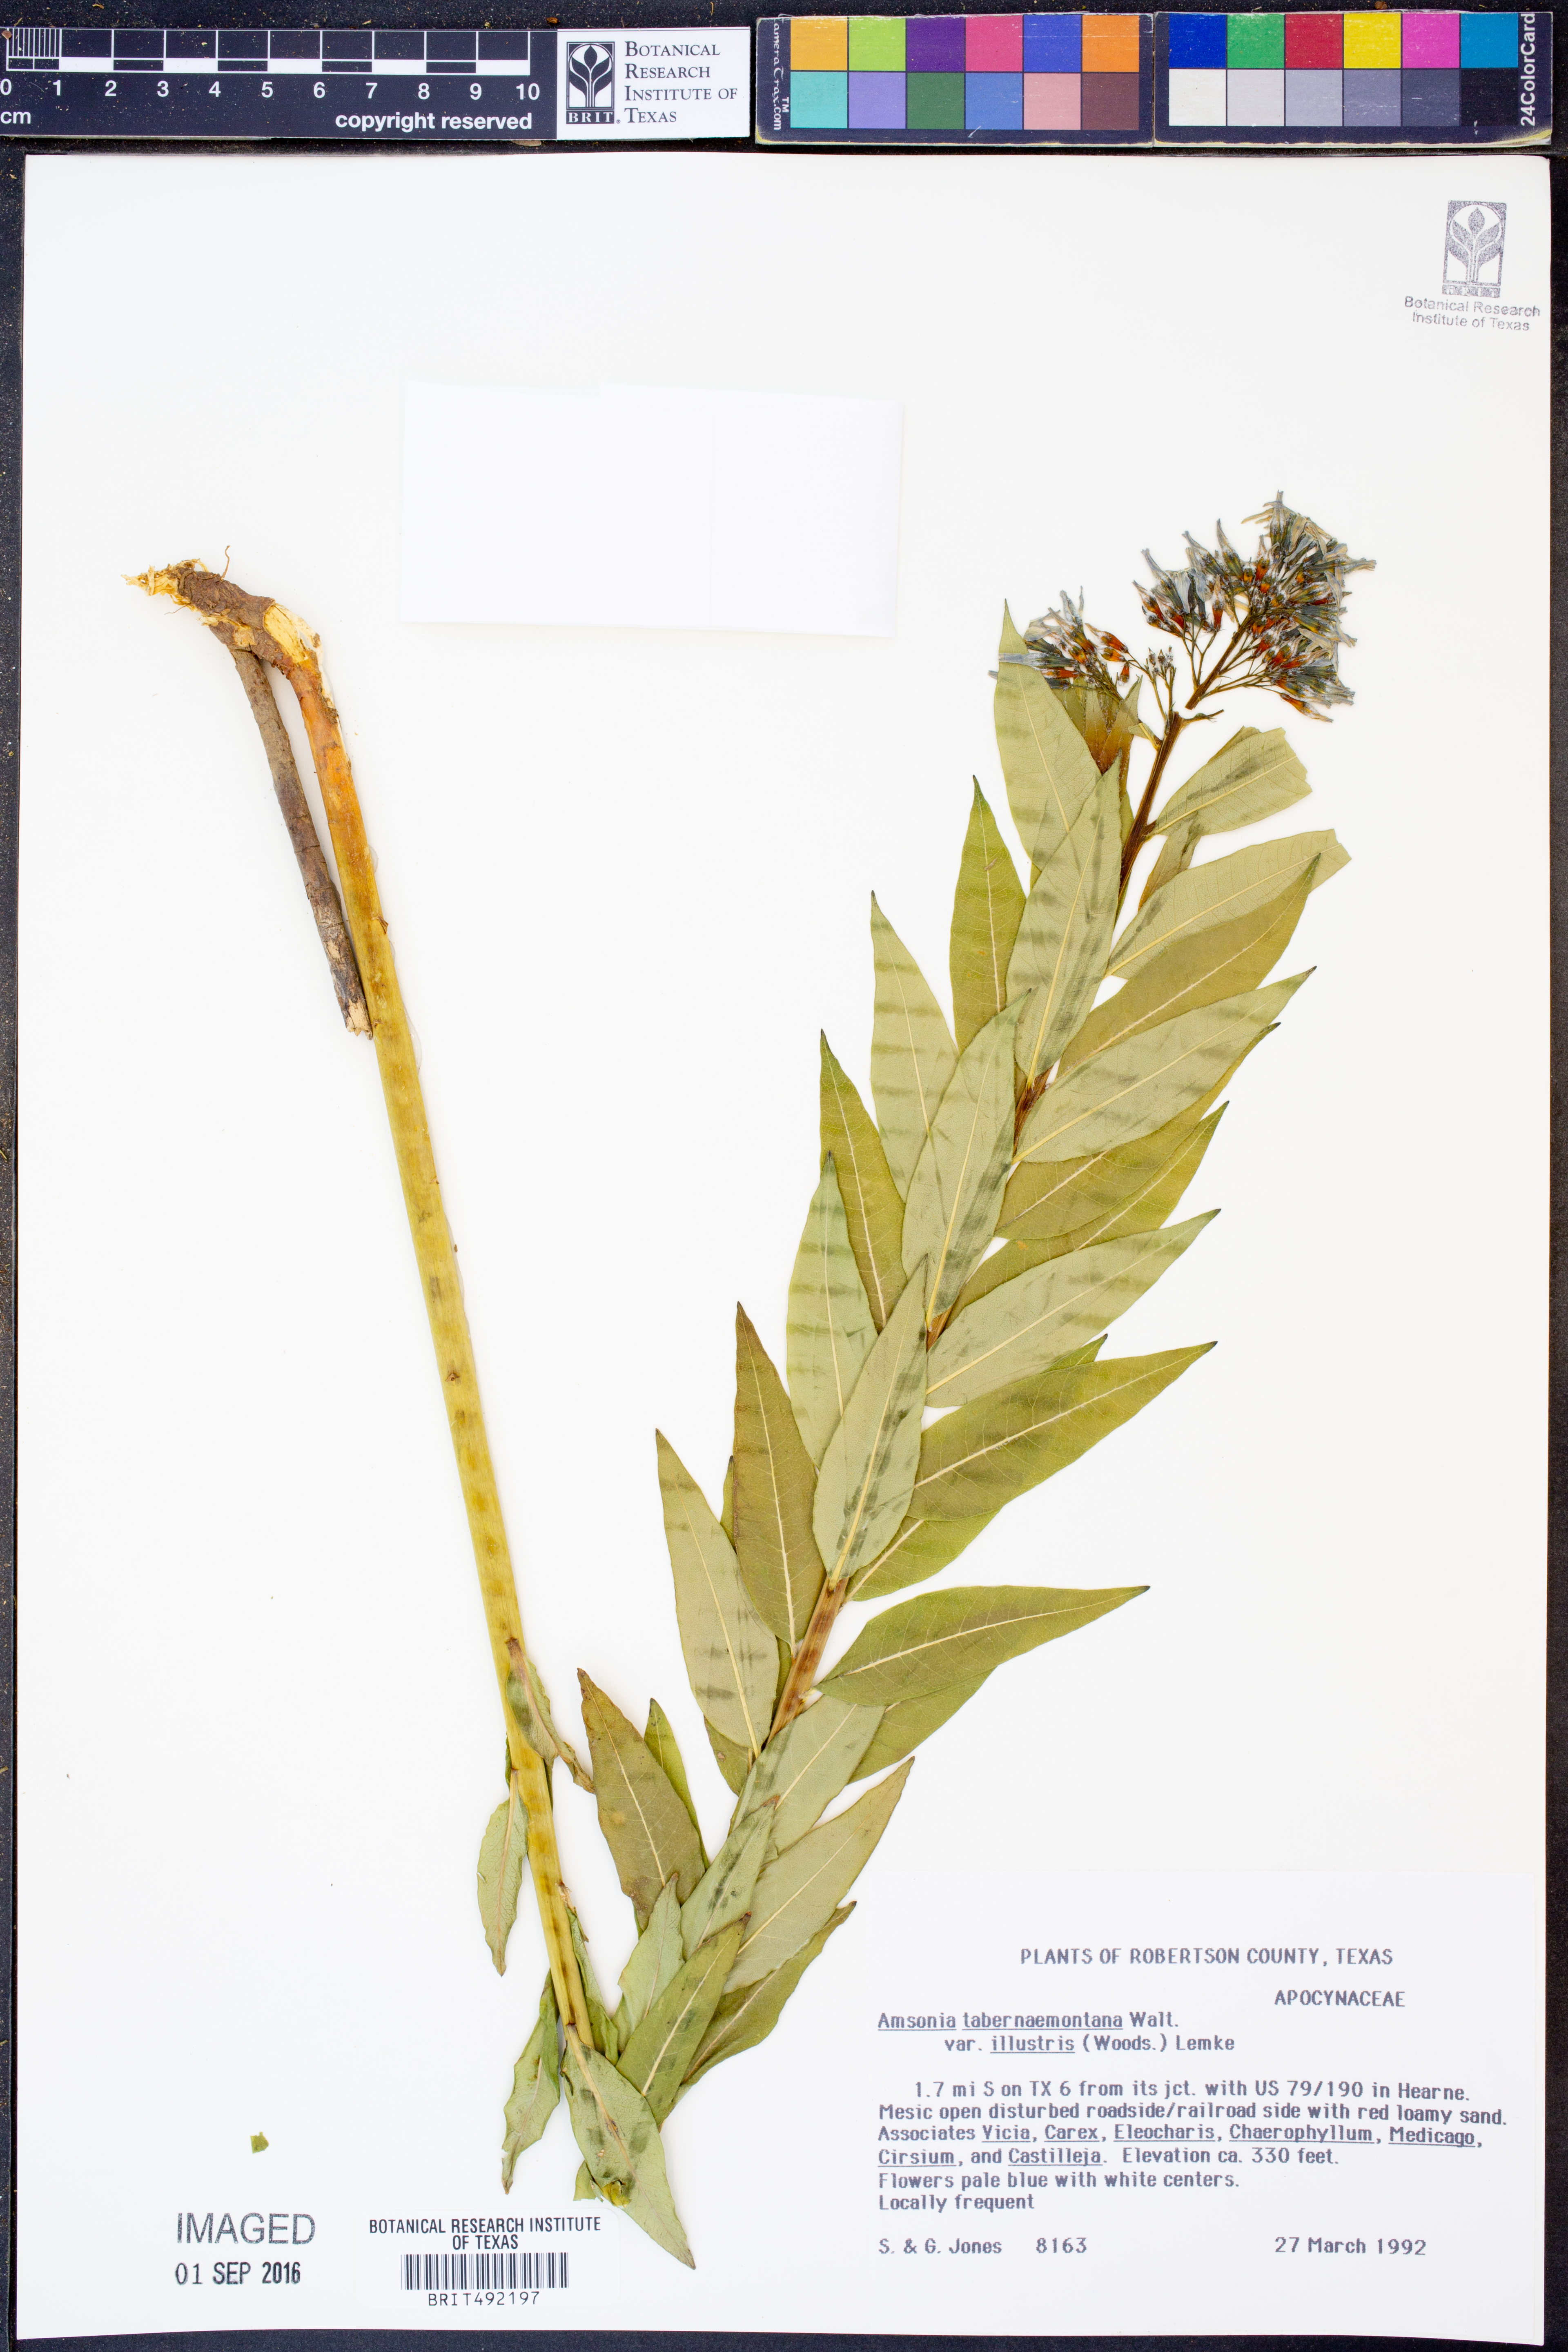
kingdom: Plantae
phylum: Tracheophyta
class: Magnoliopsida
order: Gentianales
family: Apocynaceae
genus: Amsonia
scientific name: Amsonia tabernaemontana
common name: Texas-star
